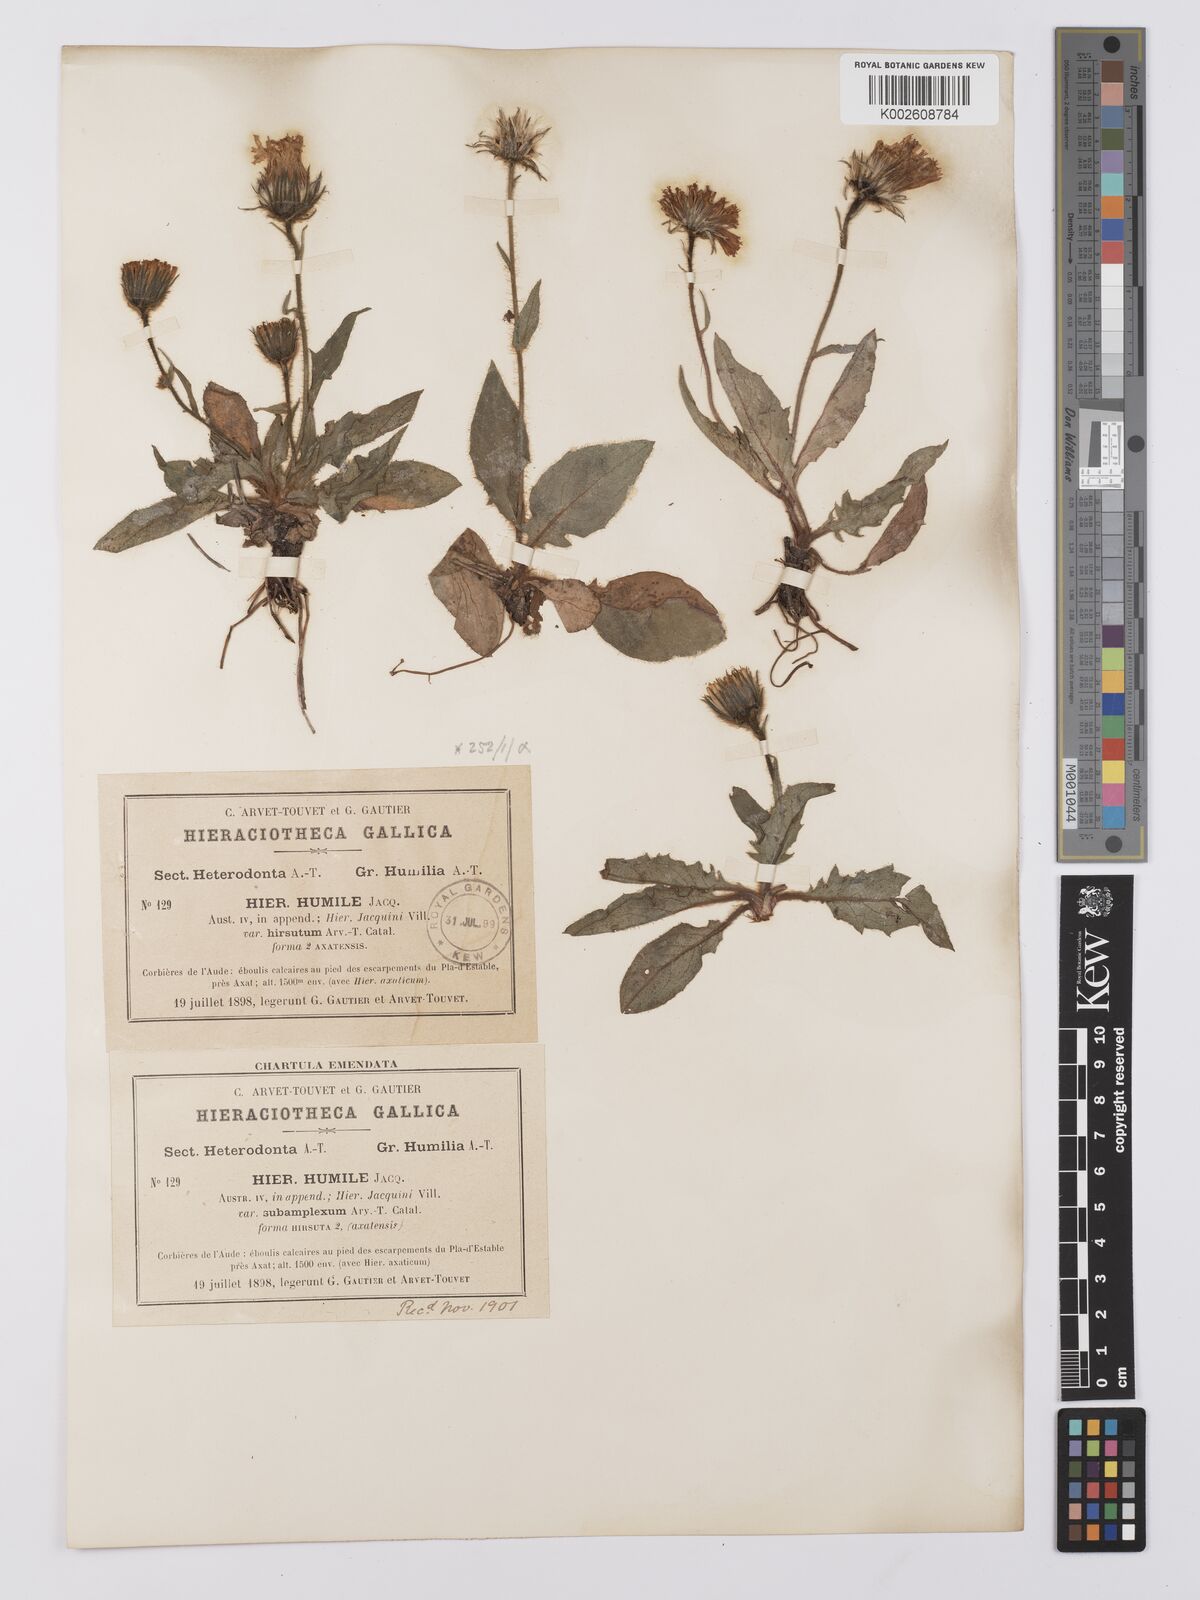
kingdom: Plantae
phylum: Tracheophyta
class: Magnoliopsida
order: Asterales
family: Asteraceae
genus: Hieracium
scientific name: Hieracium humile
